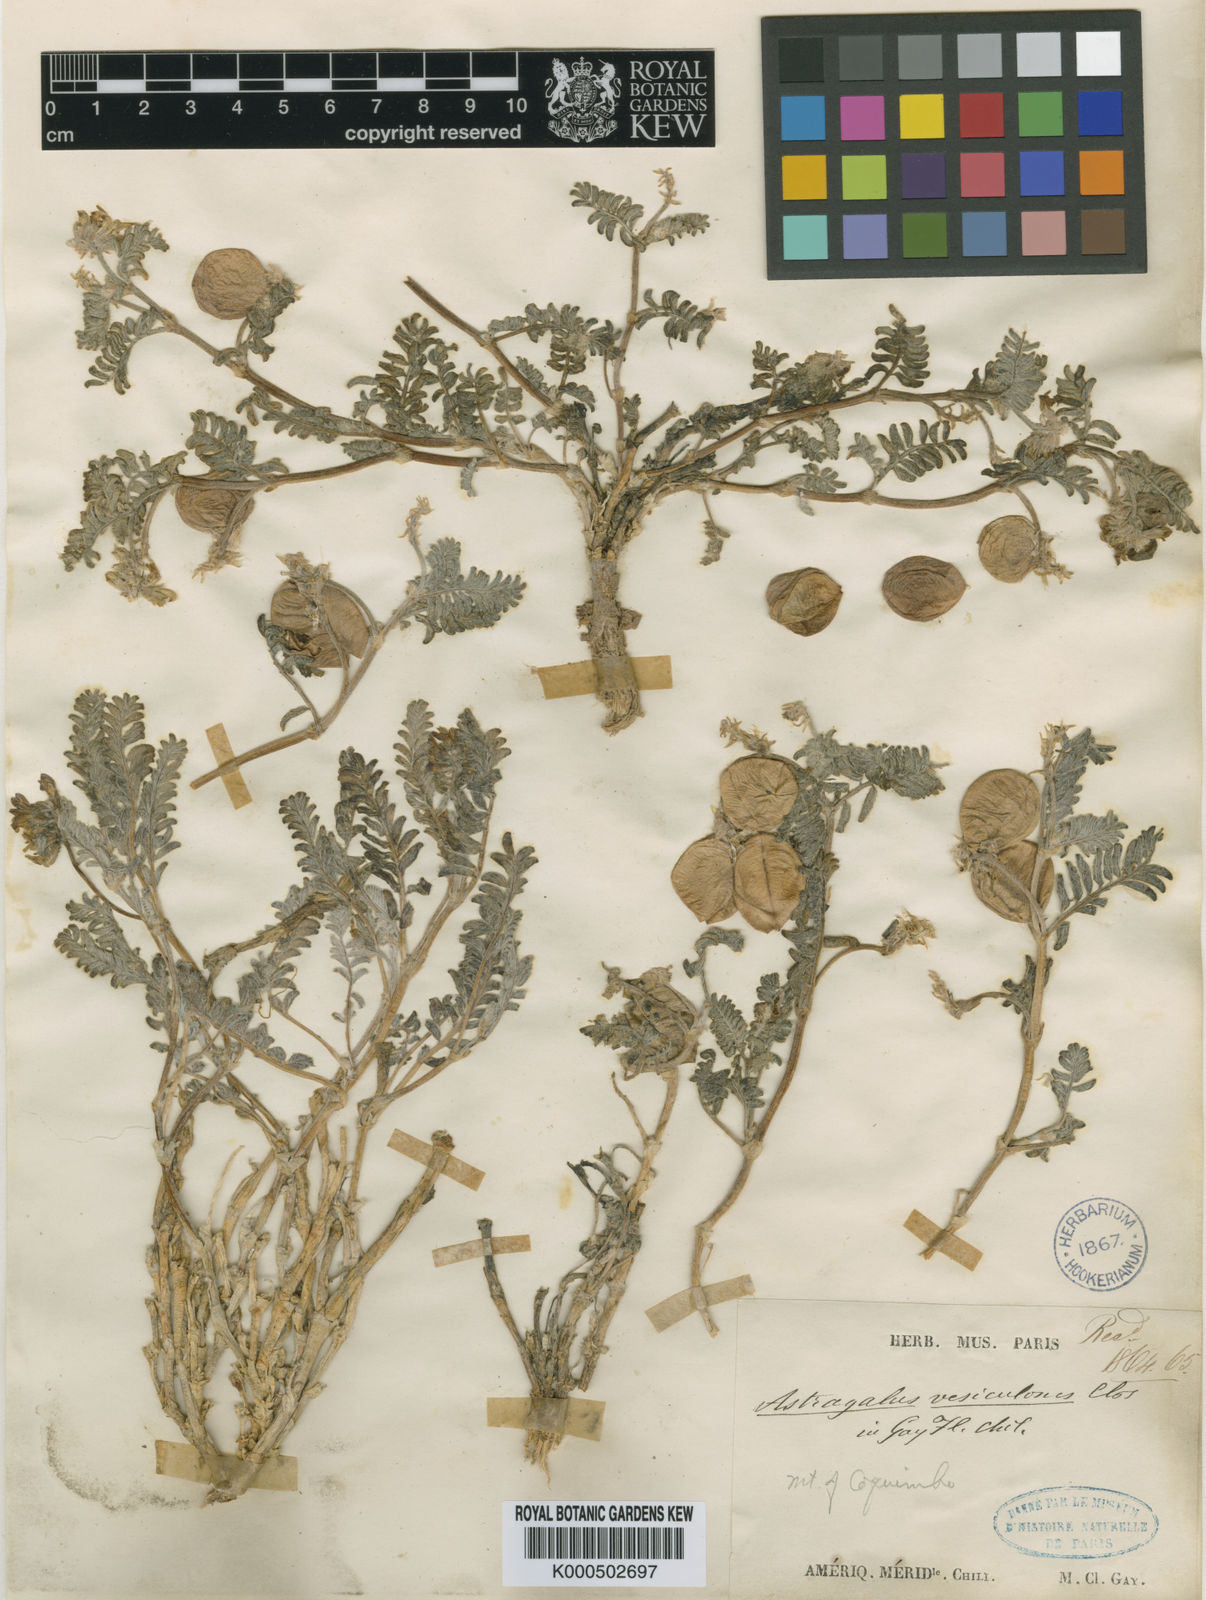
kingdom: Plantae
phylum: Tracheophyta
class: Magnoliopsida
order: Fabales
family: Fabaceae
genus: Astragalus
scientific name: Astragalus vesiculosus
